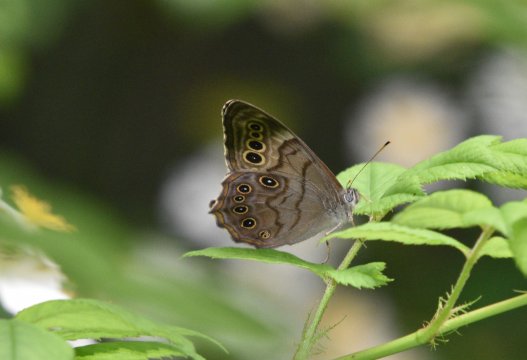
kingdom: Animalia
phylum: Arthropoda
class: Insecta
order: Lepidoptera
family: Nymphalidae
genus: Lethe
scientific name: Lethe anthedon
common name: Northern Pearly-Eye
